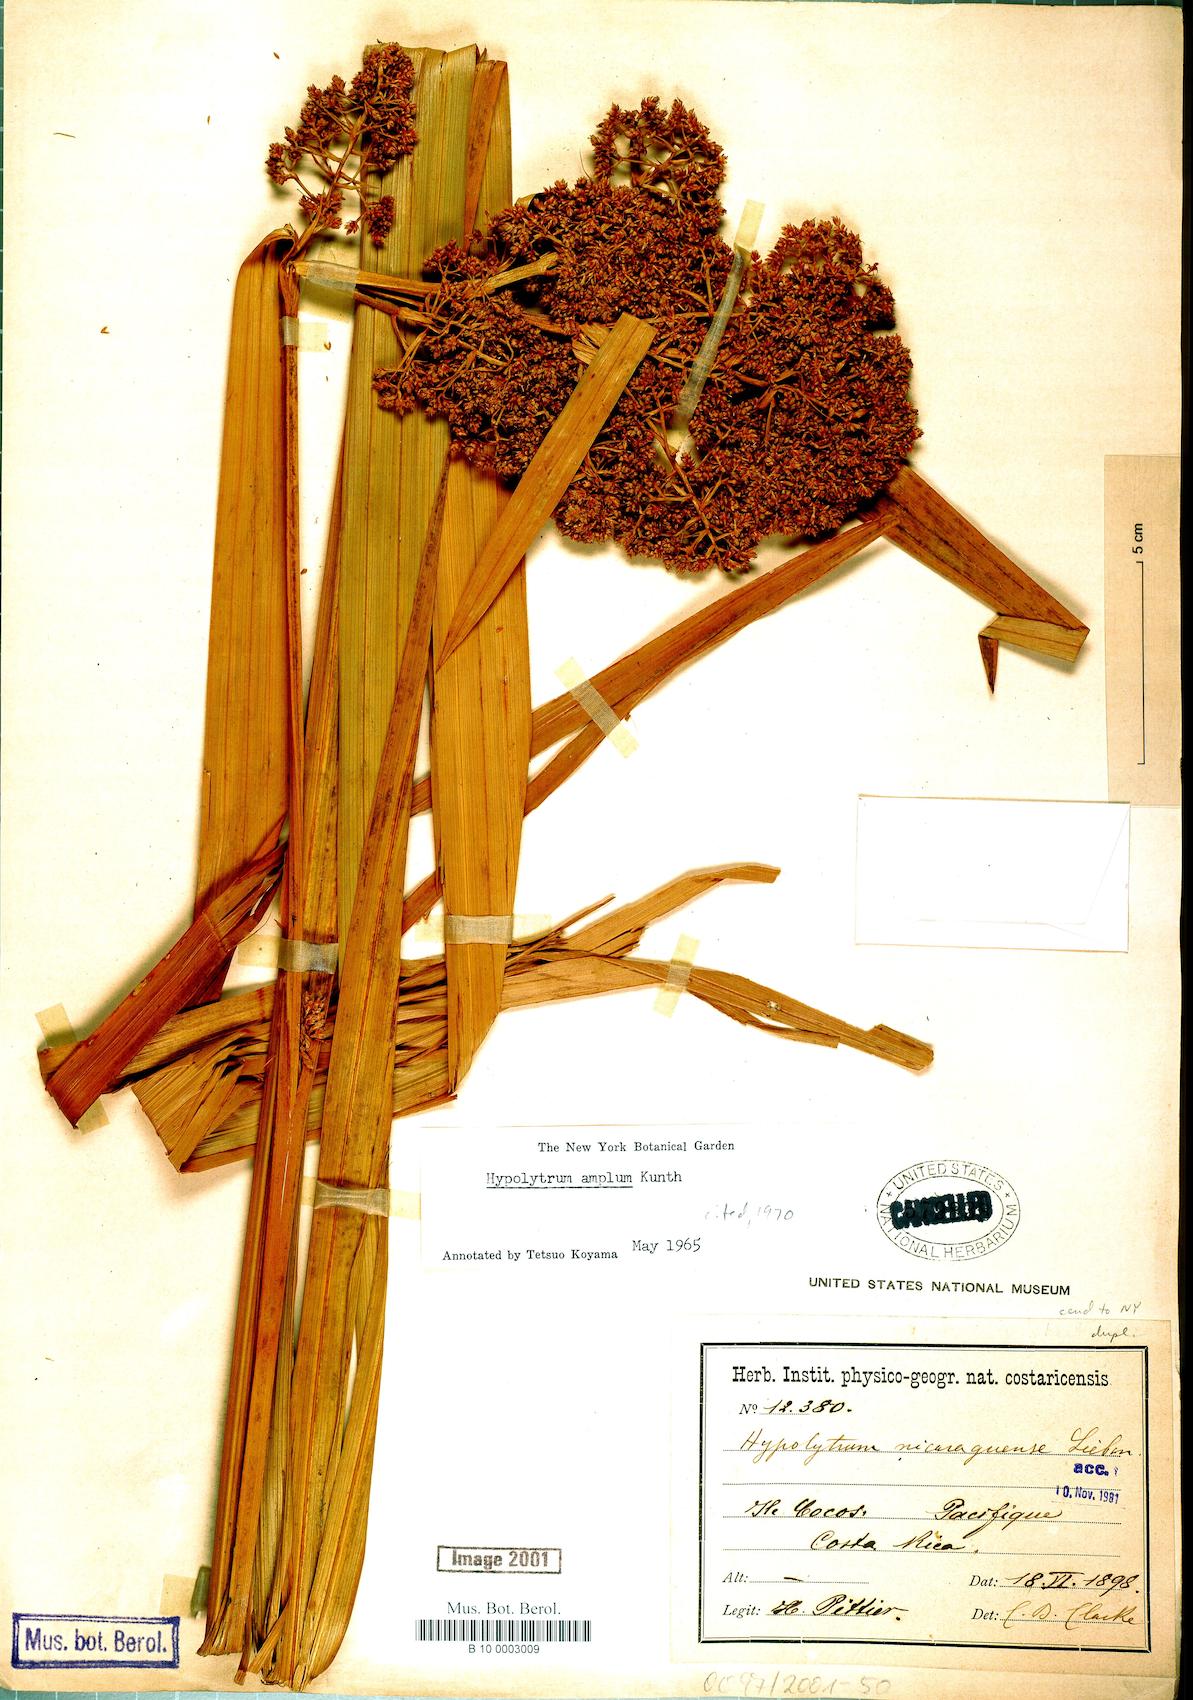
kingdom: Plantae
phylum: Tracheophyta
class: Liliopsida
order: Poales
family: Cyperaceae
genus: Hypolytrum
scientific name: Hypolytrum amplum
